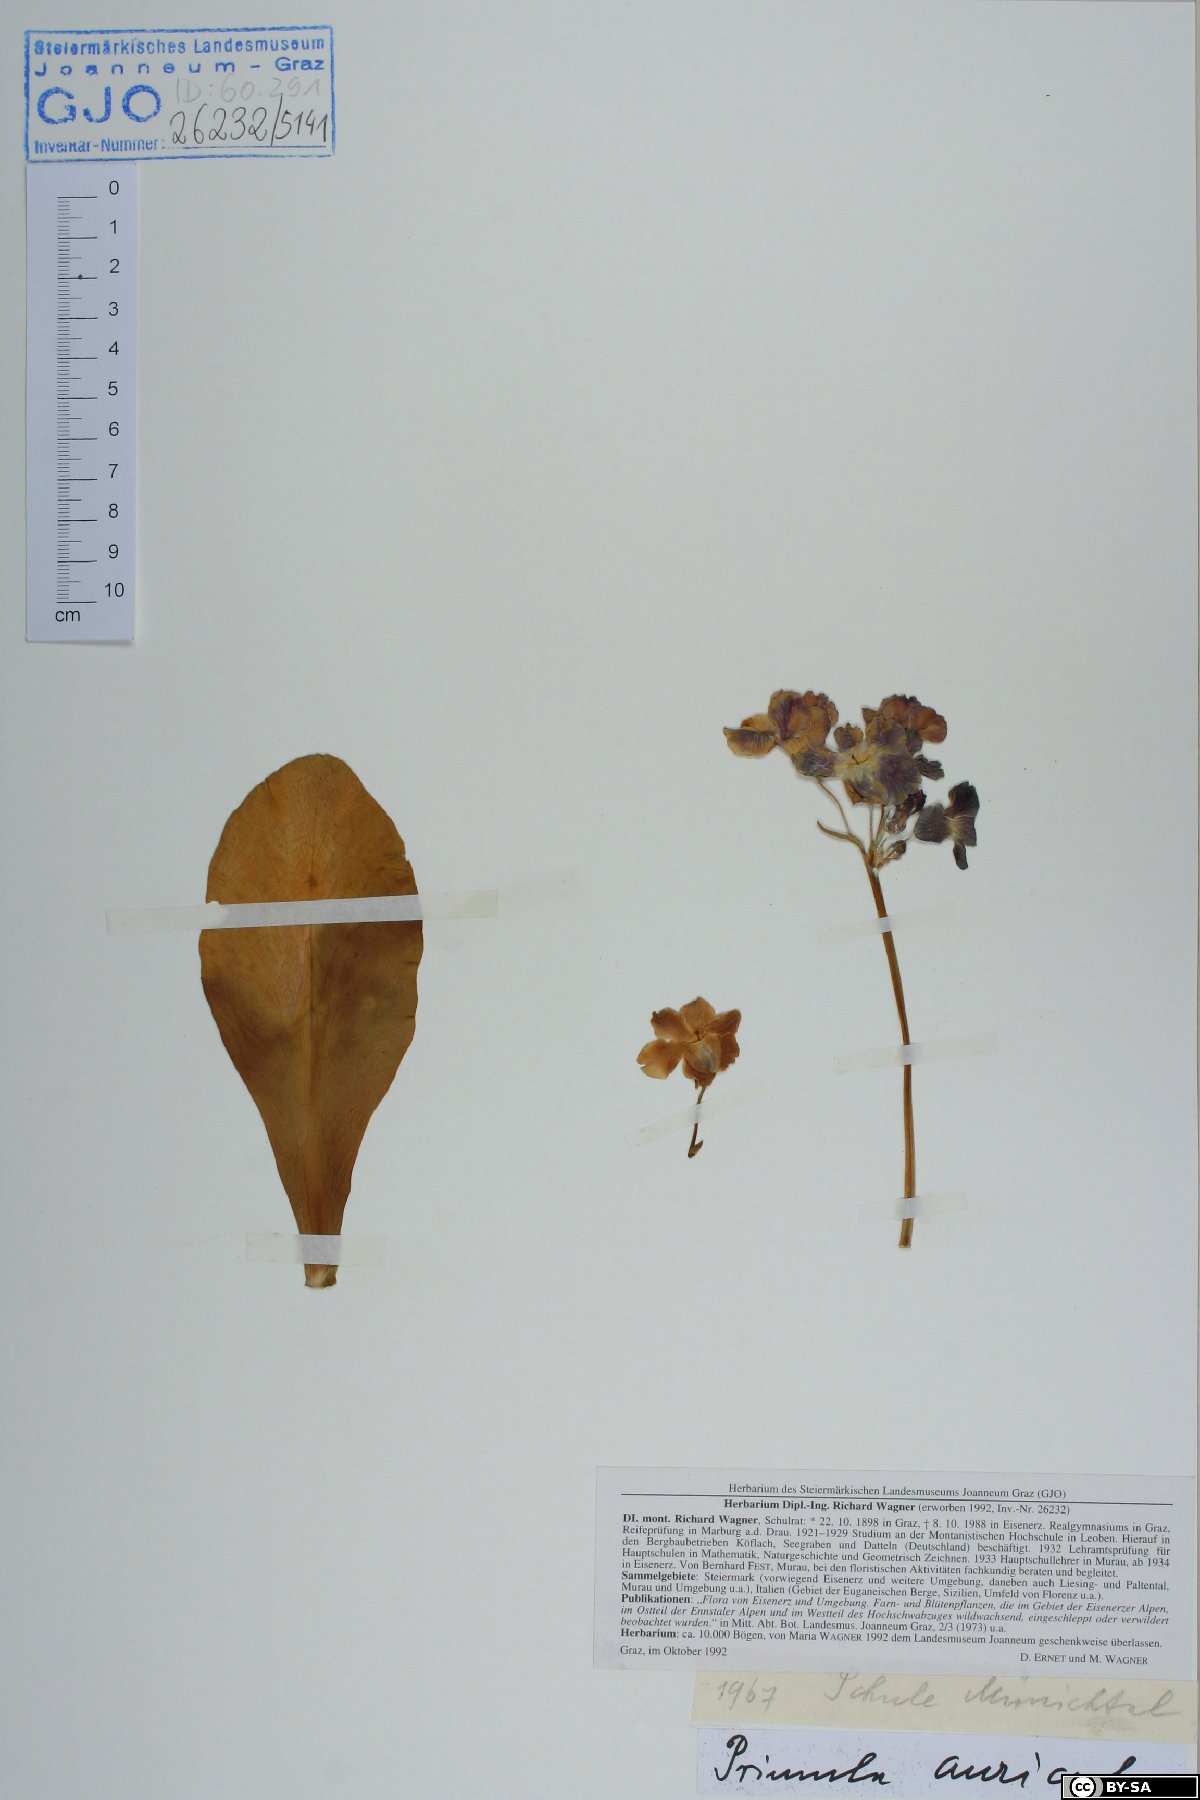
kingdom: Plantae
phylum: Tracheophyta
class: Magnoliopsida
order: Ericales
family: Primulaceae
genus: Primula
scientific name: Primula auricula
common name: Auricula
